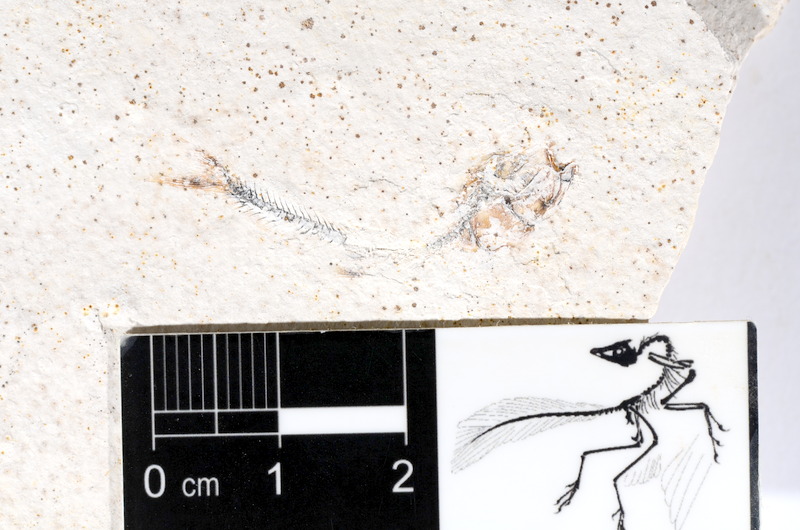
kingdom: Animalia
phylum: Chordata
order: Salmoniformes
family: Orthogonikleithridae
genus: Orthogonikleithrus
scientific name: Orthogonikleithrus hoelli
